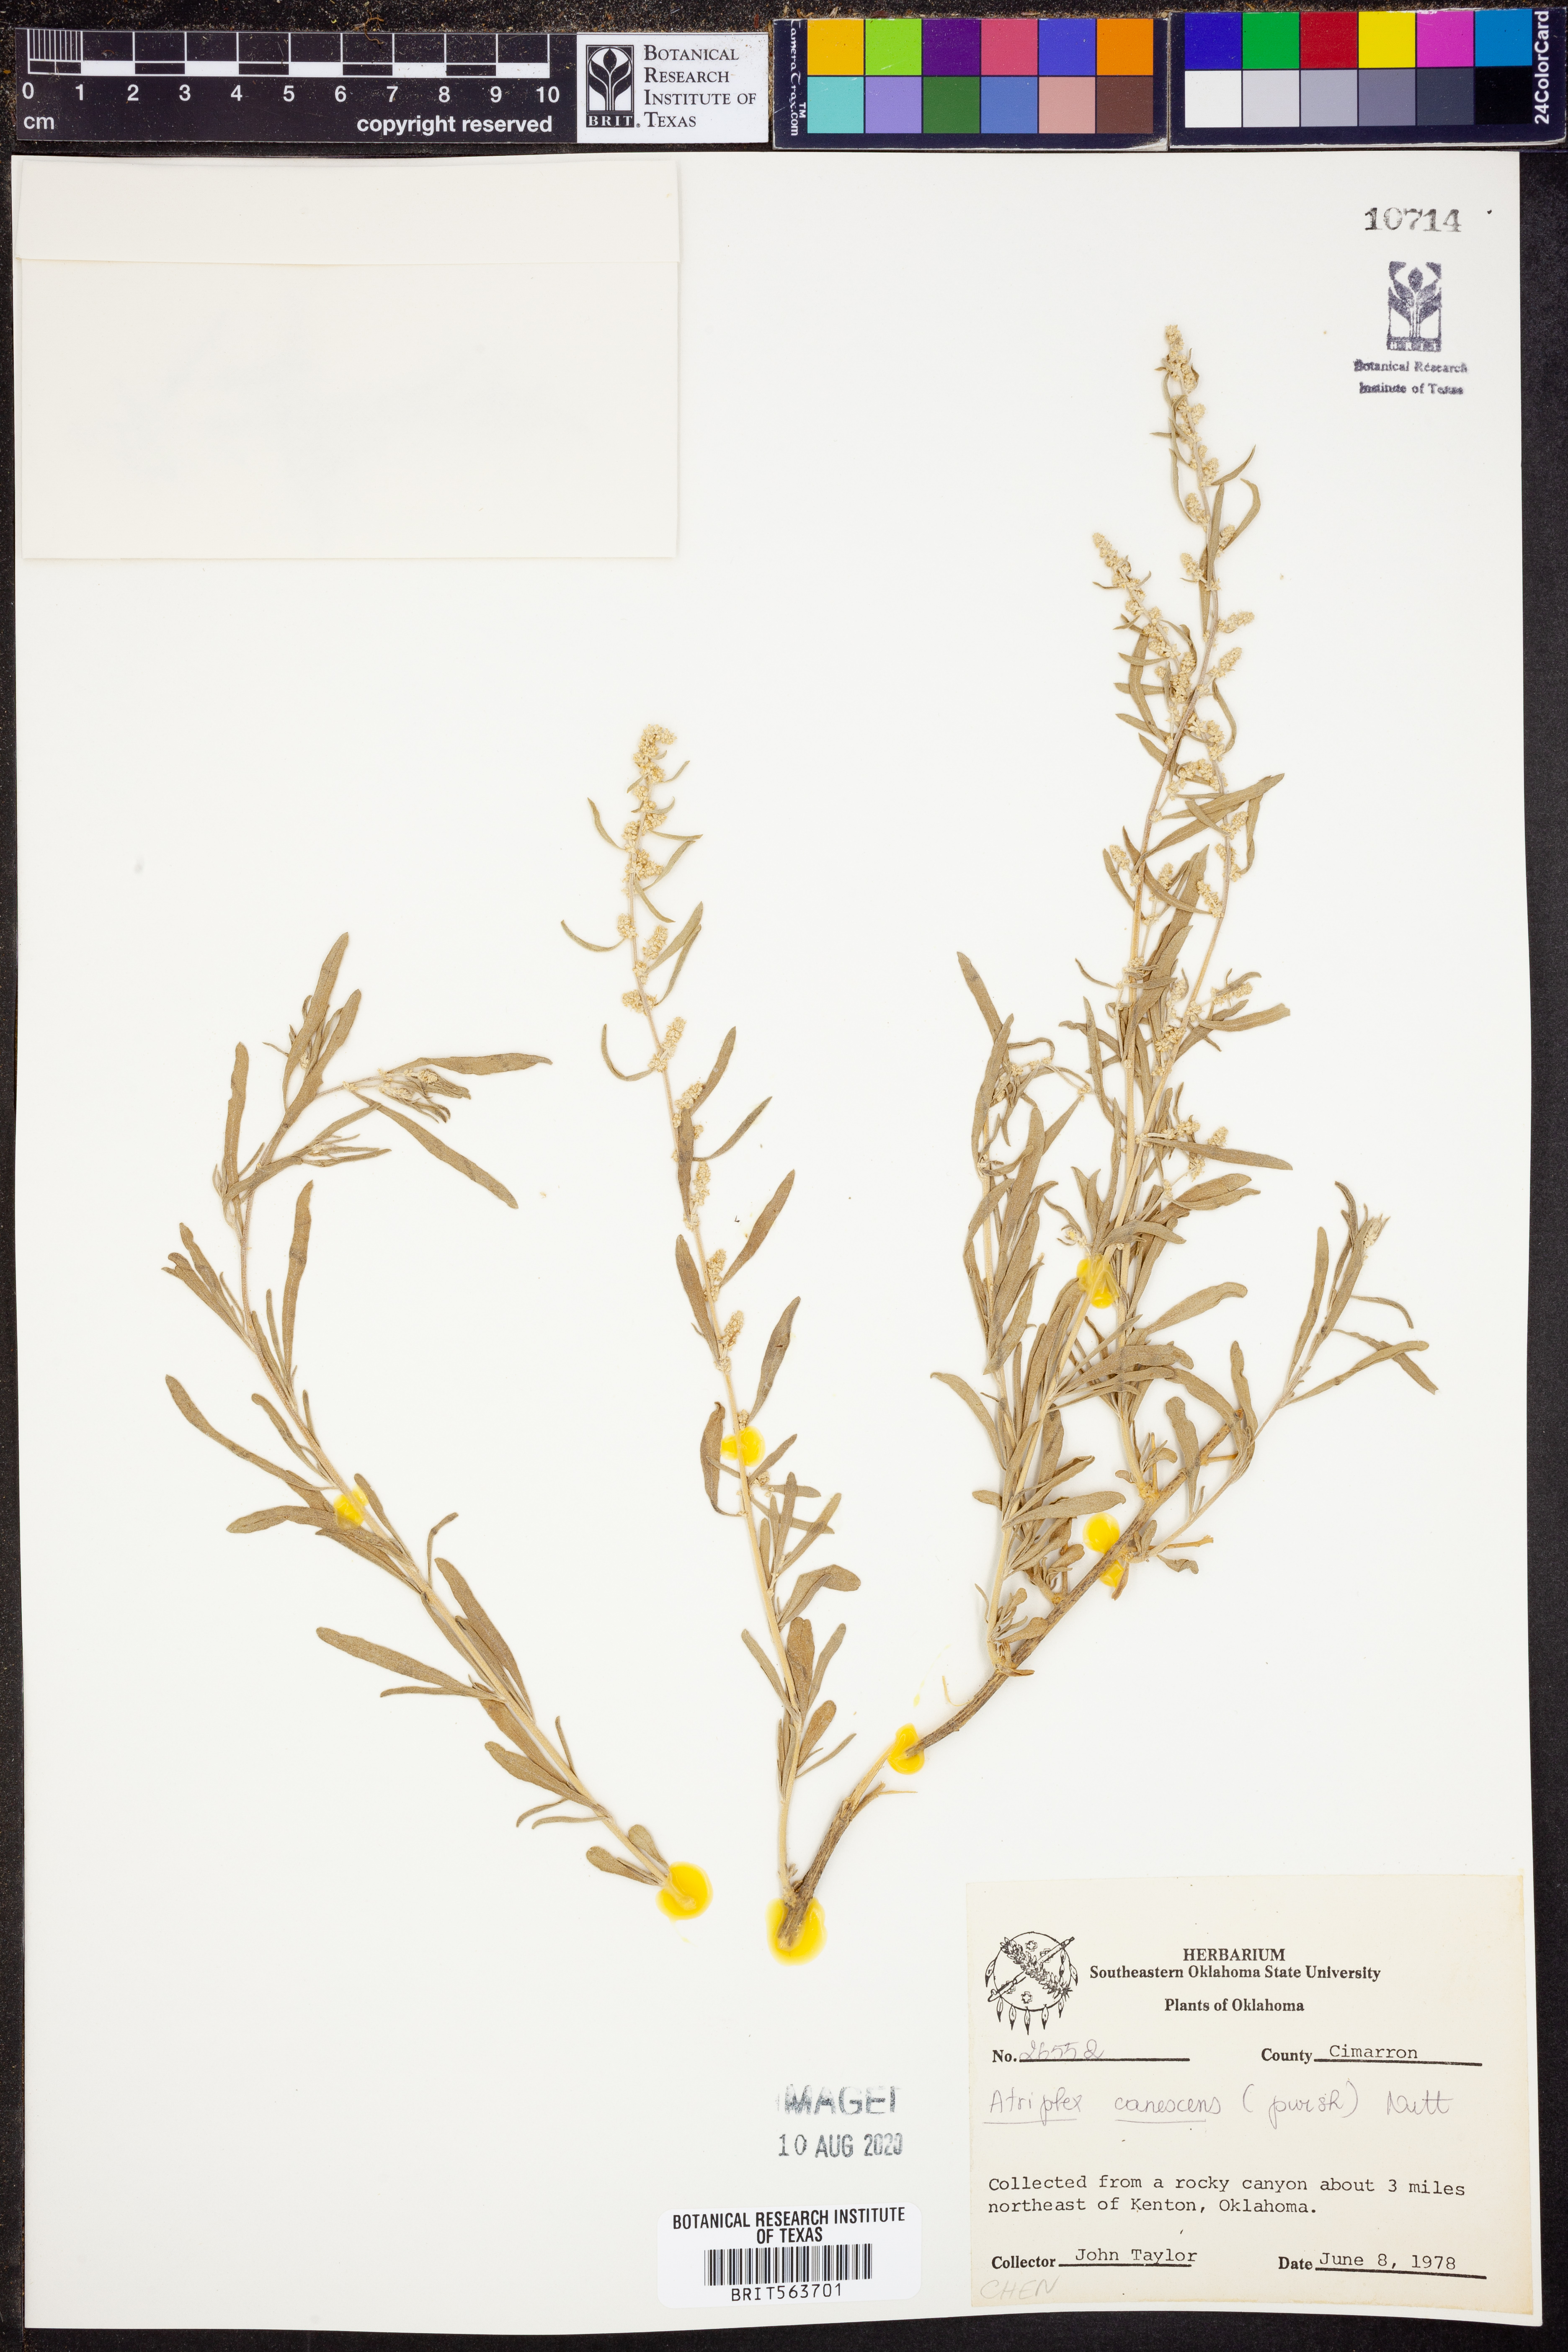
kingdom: Plantae
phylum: Tracheophyta
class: Magnoliopsida
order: Caryophyllales
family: Amaranthaceae
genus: Atriplex
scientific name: Atriplex canescens
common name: Four-wing saltbush
